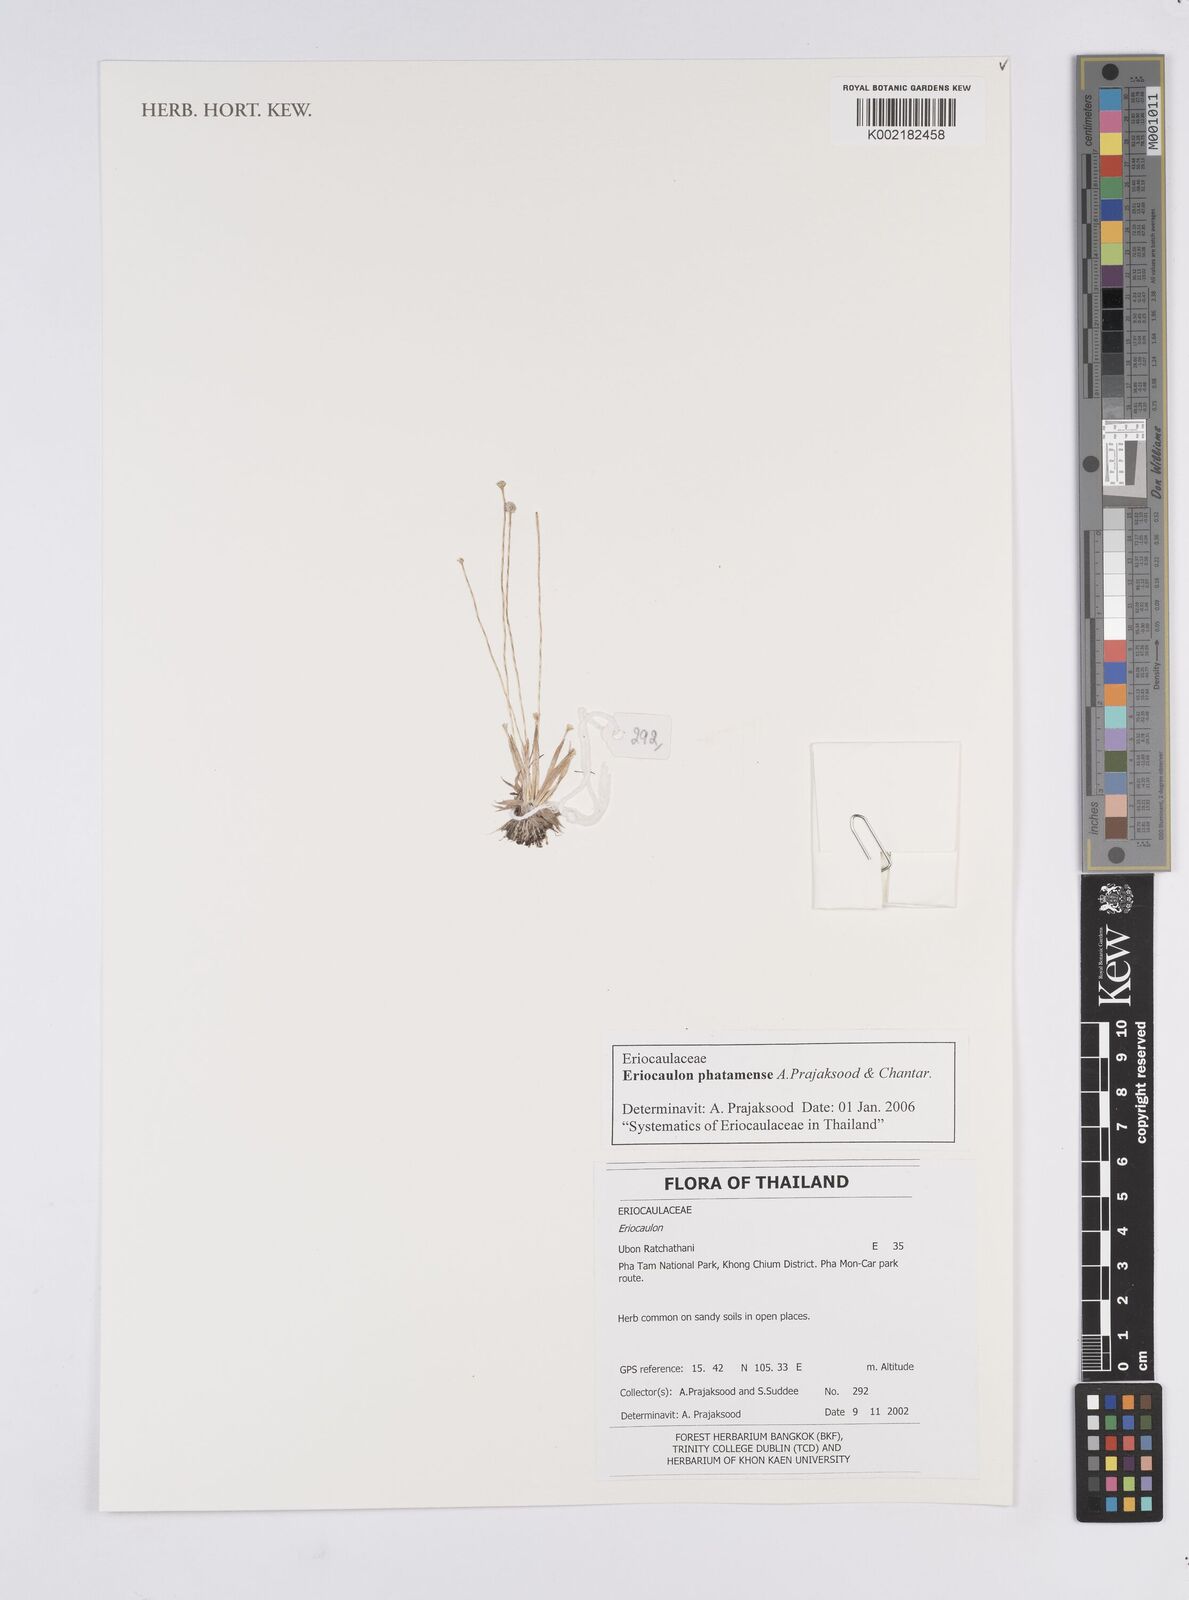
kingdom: Plantae
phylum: Tracheophyta
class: Liliopsida
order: Poales
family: Eriocaulaceae
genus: Eriocaulon
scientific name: Eriocaulon phatamense
